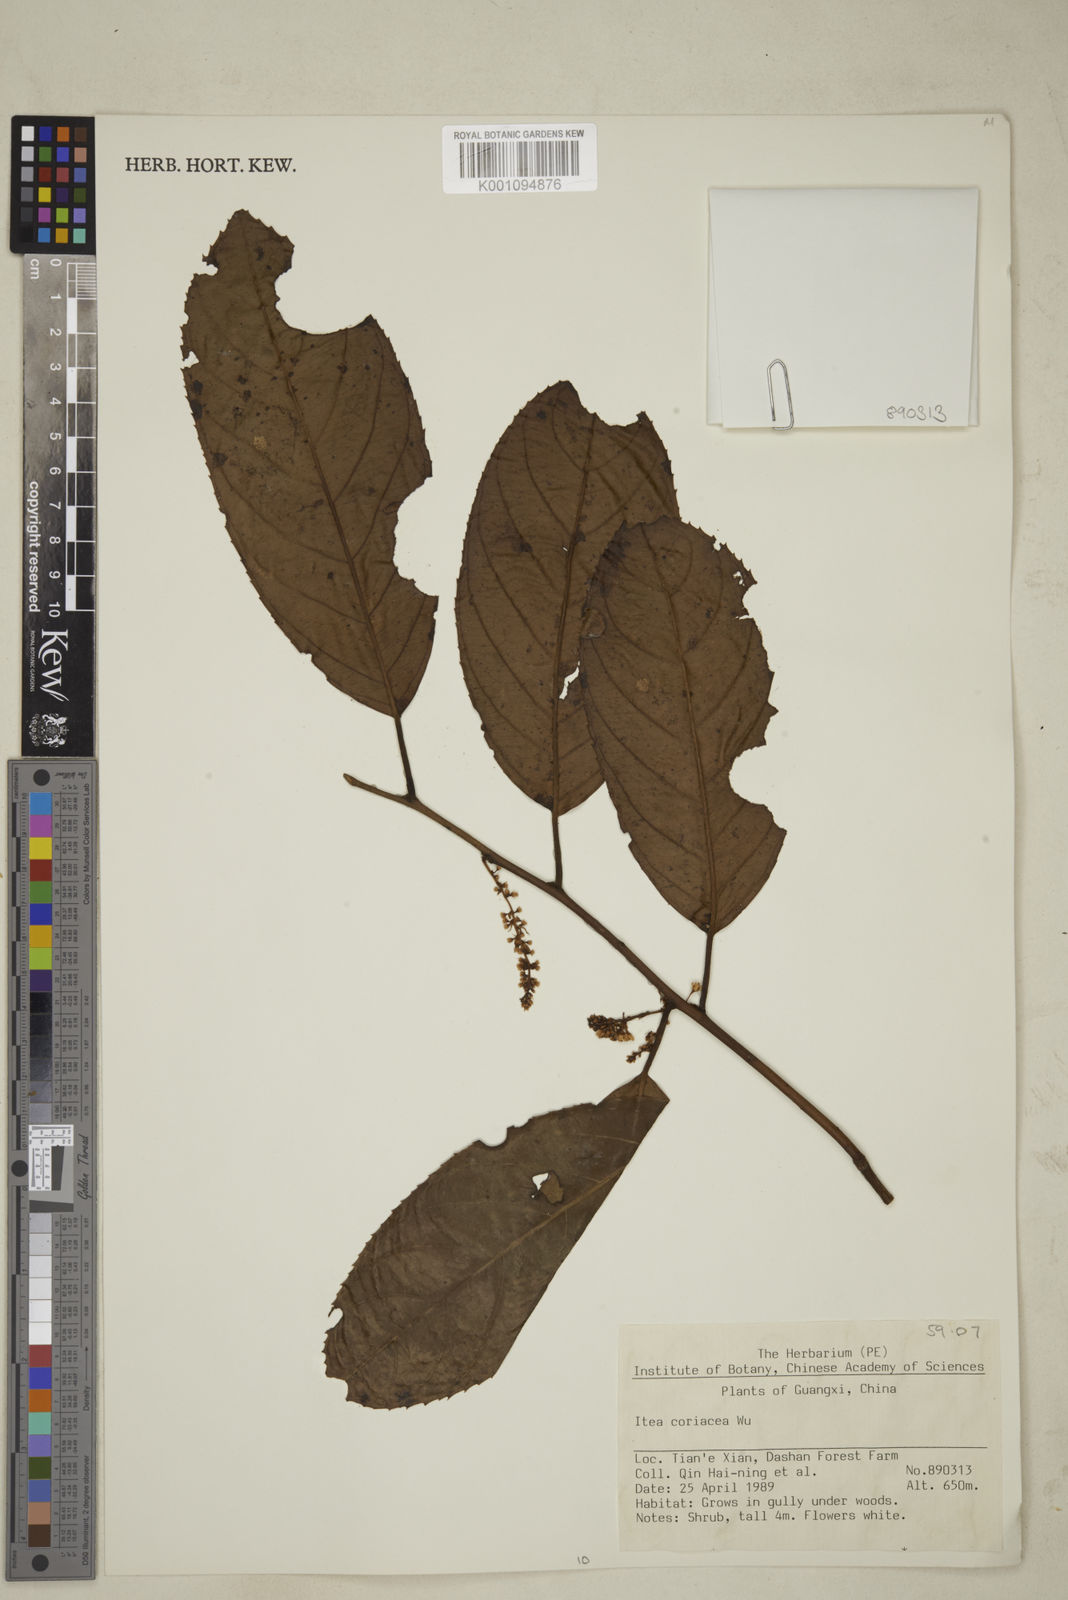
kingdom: Plantae
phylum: Tracheophyta
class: Magnoliopsida
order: Saxifragales
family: Iteaceae
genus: Itea
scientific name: Itea coriacea
